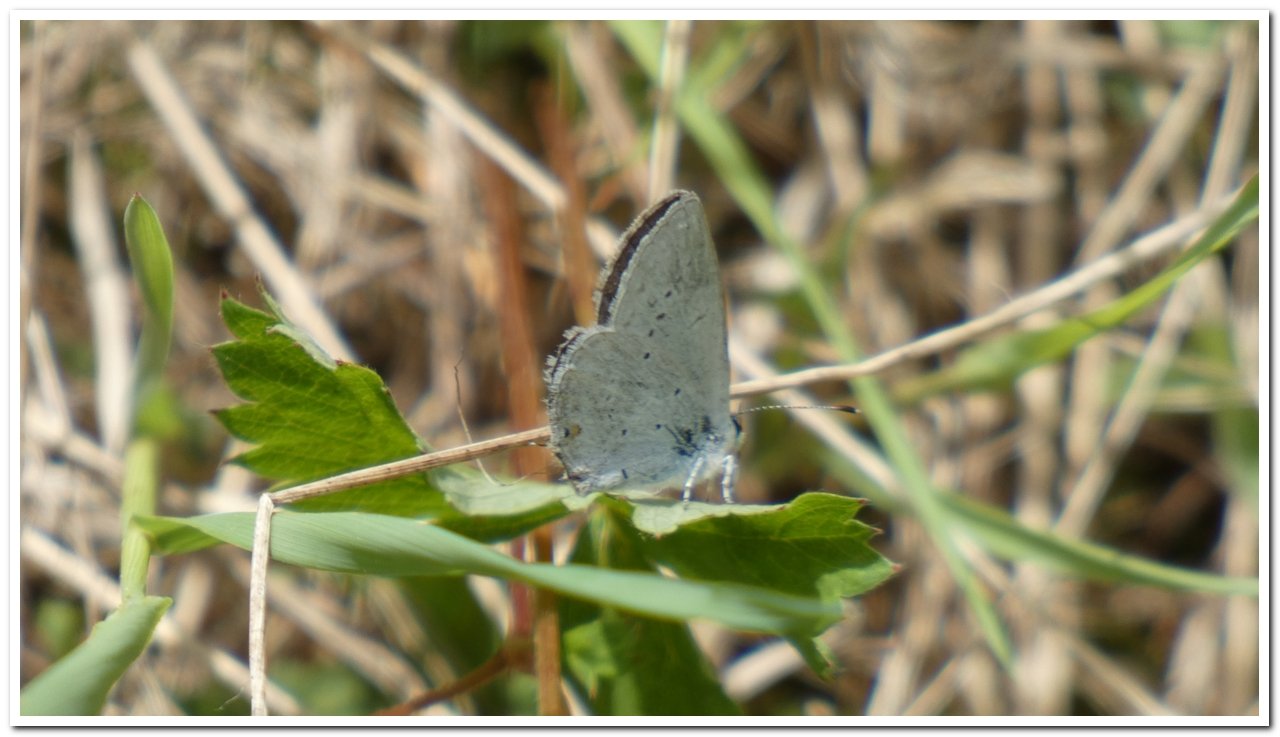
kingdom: Animalia
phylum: Arthropoda
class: Insecta
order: Lepidoptera
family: Lycaenidae
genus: Elkalyce
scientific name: Elkalyce amyntula
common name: Western Tailed-Blue
